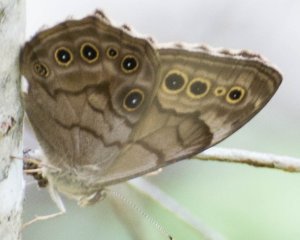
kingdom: Animalia
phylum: Arthropoda
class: Insecta
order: Lepidoptera
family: Nymphalidae
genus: Lethe
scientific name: Lethe anthedon
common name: Northern Pearly-Eye
